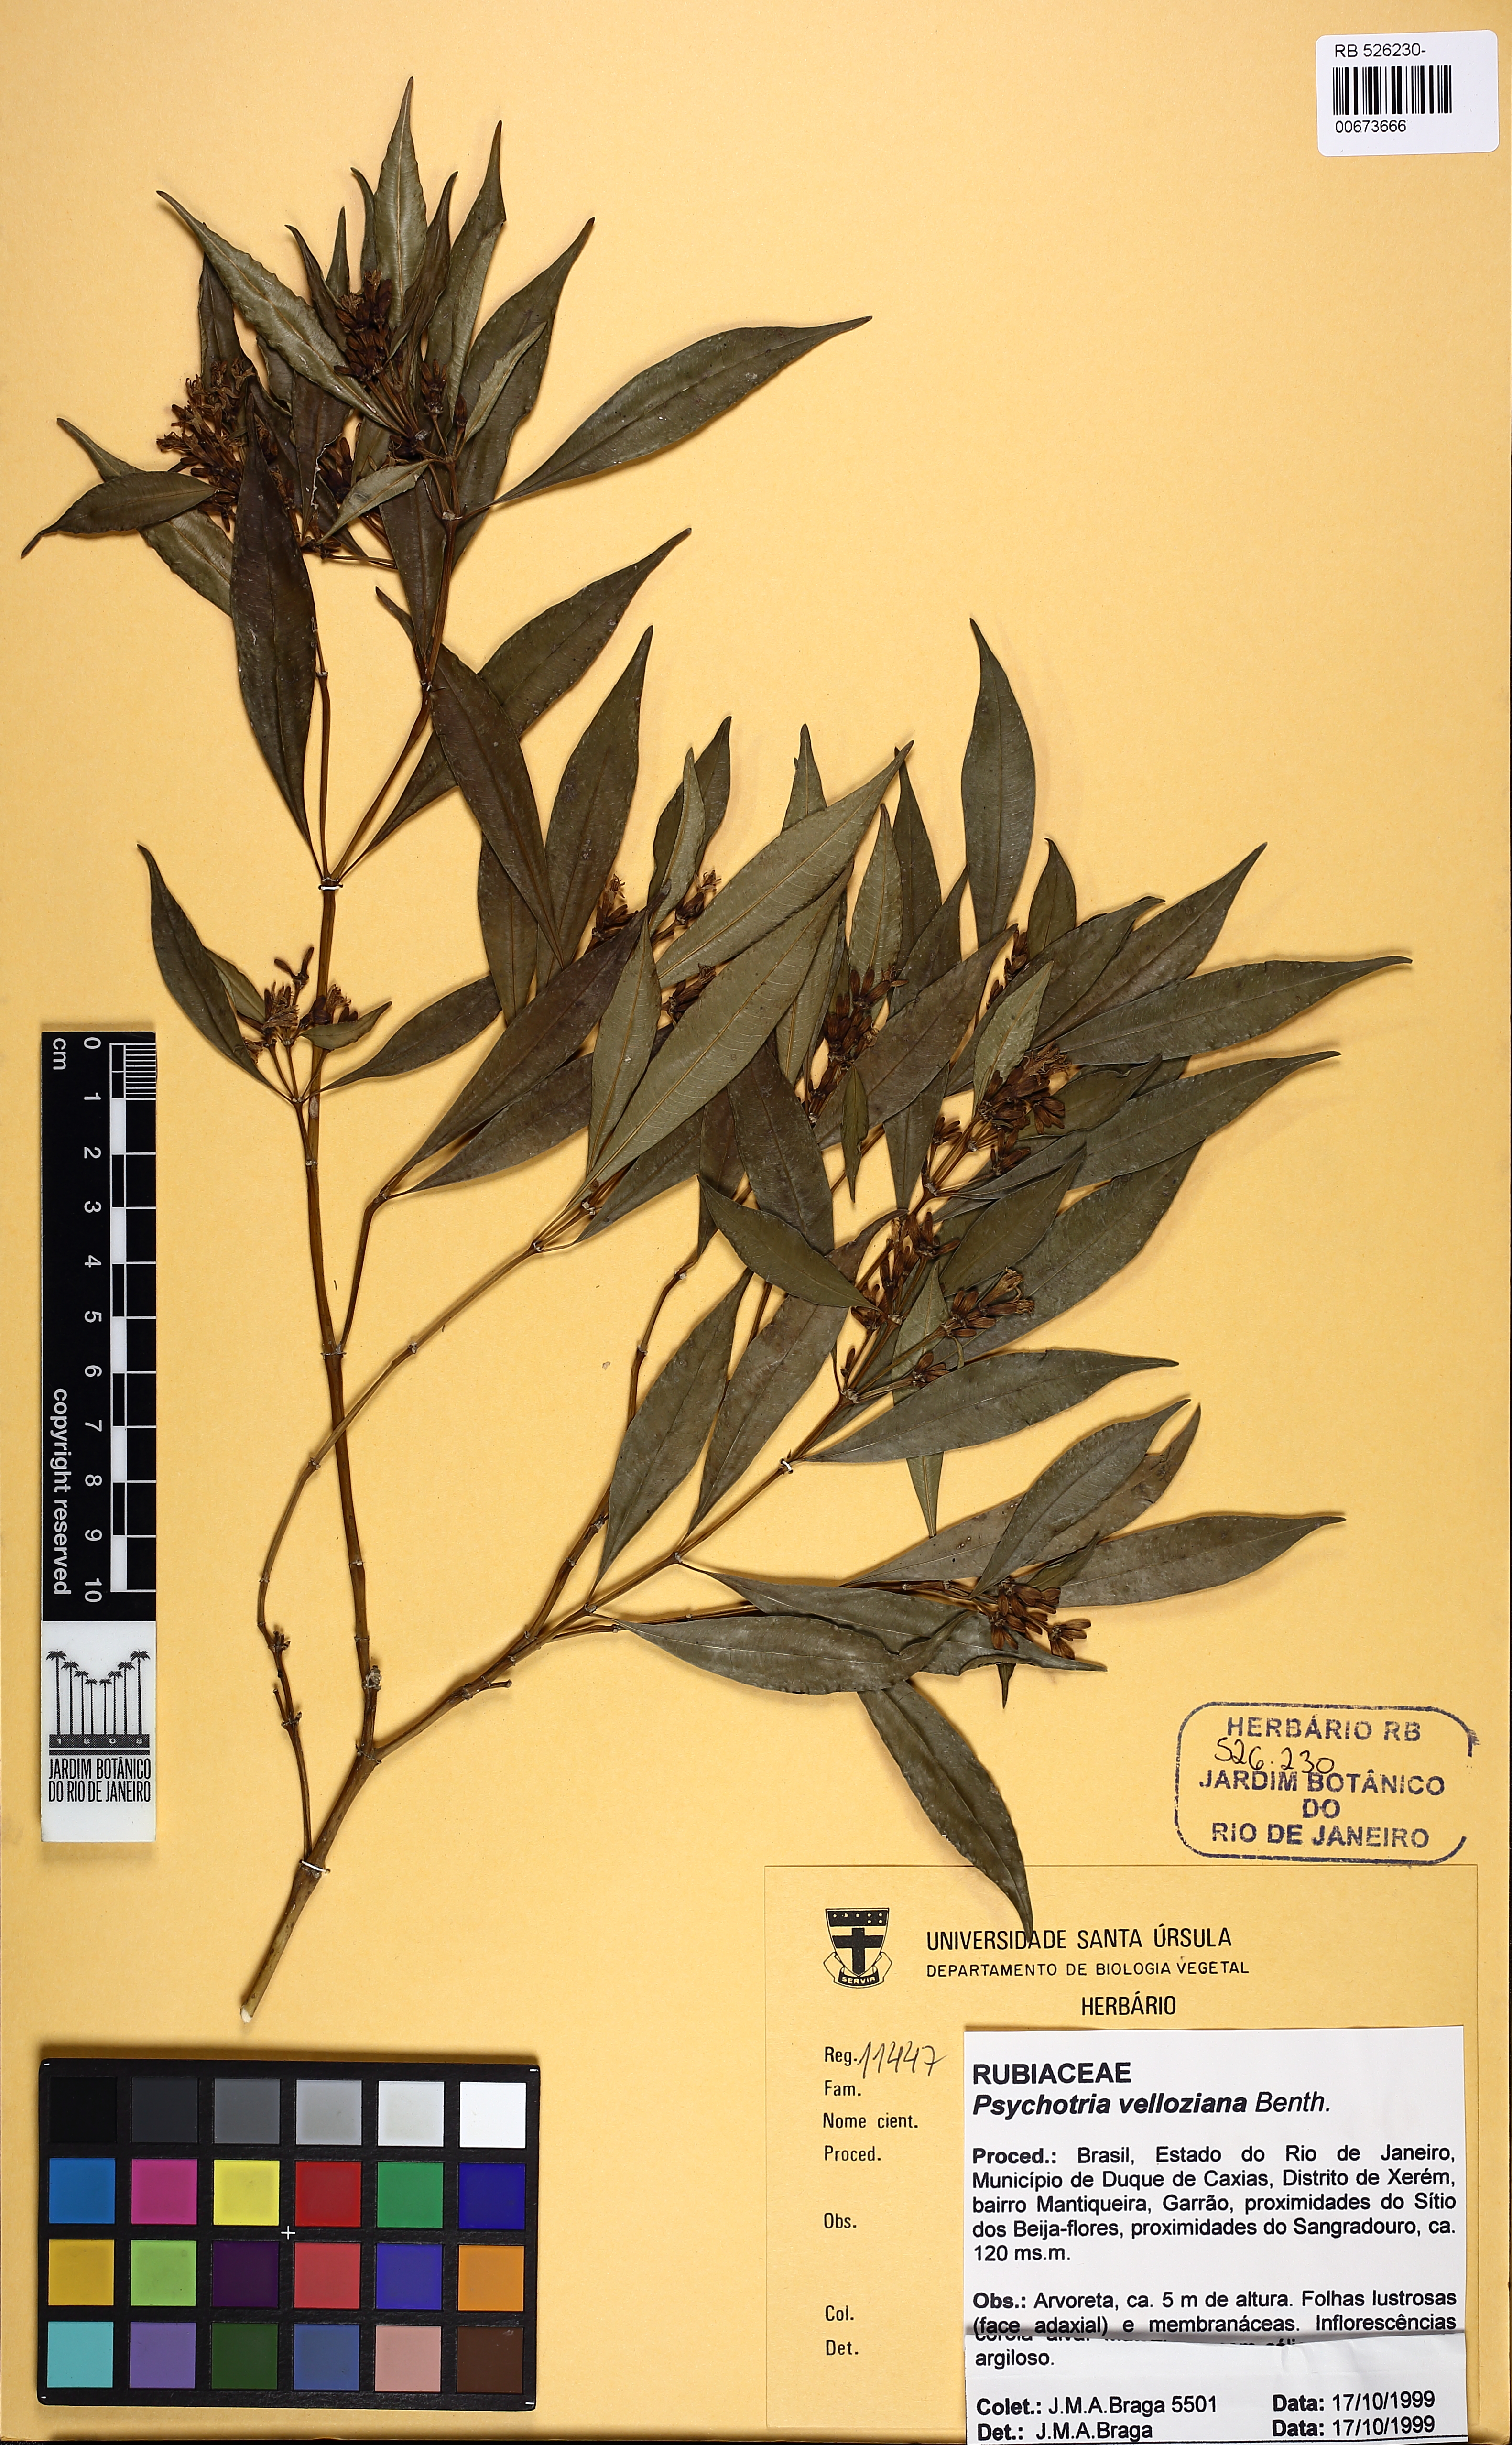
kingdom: Plantae
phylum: Tracheophyta
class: Magnoliopsida
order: Gentianales
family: Rubiaceae
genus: Palicourea
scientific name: Palicourea sessilis
